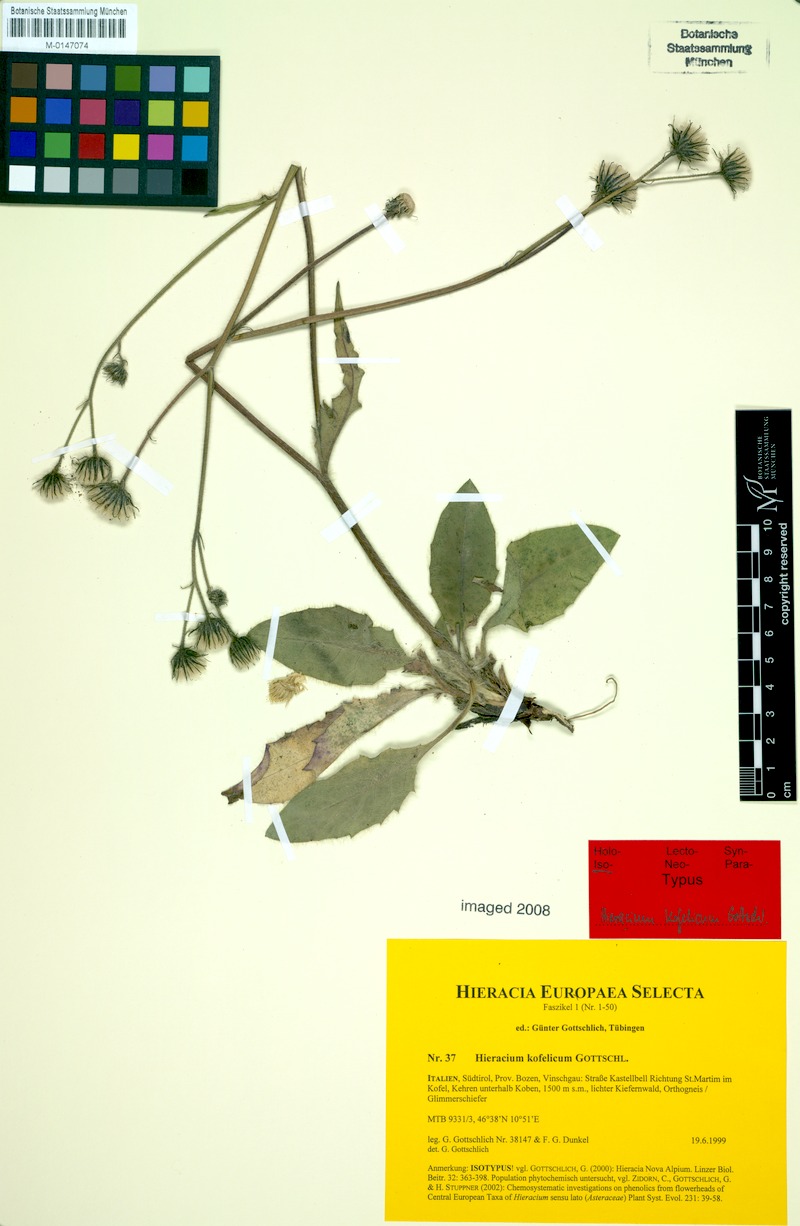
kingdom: Plantae
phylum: Tracheophyta
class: Magnoliopsida
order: Asterales
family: Asteraceae
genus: Hieracium
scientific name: Hieracium kofelicum
